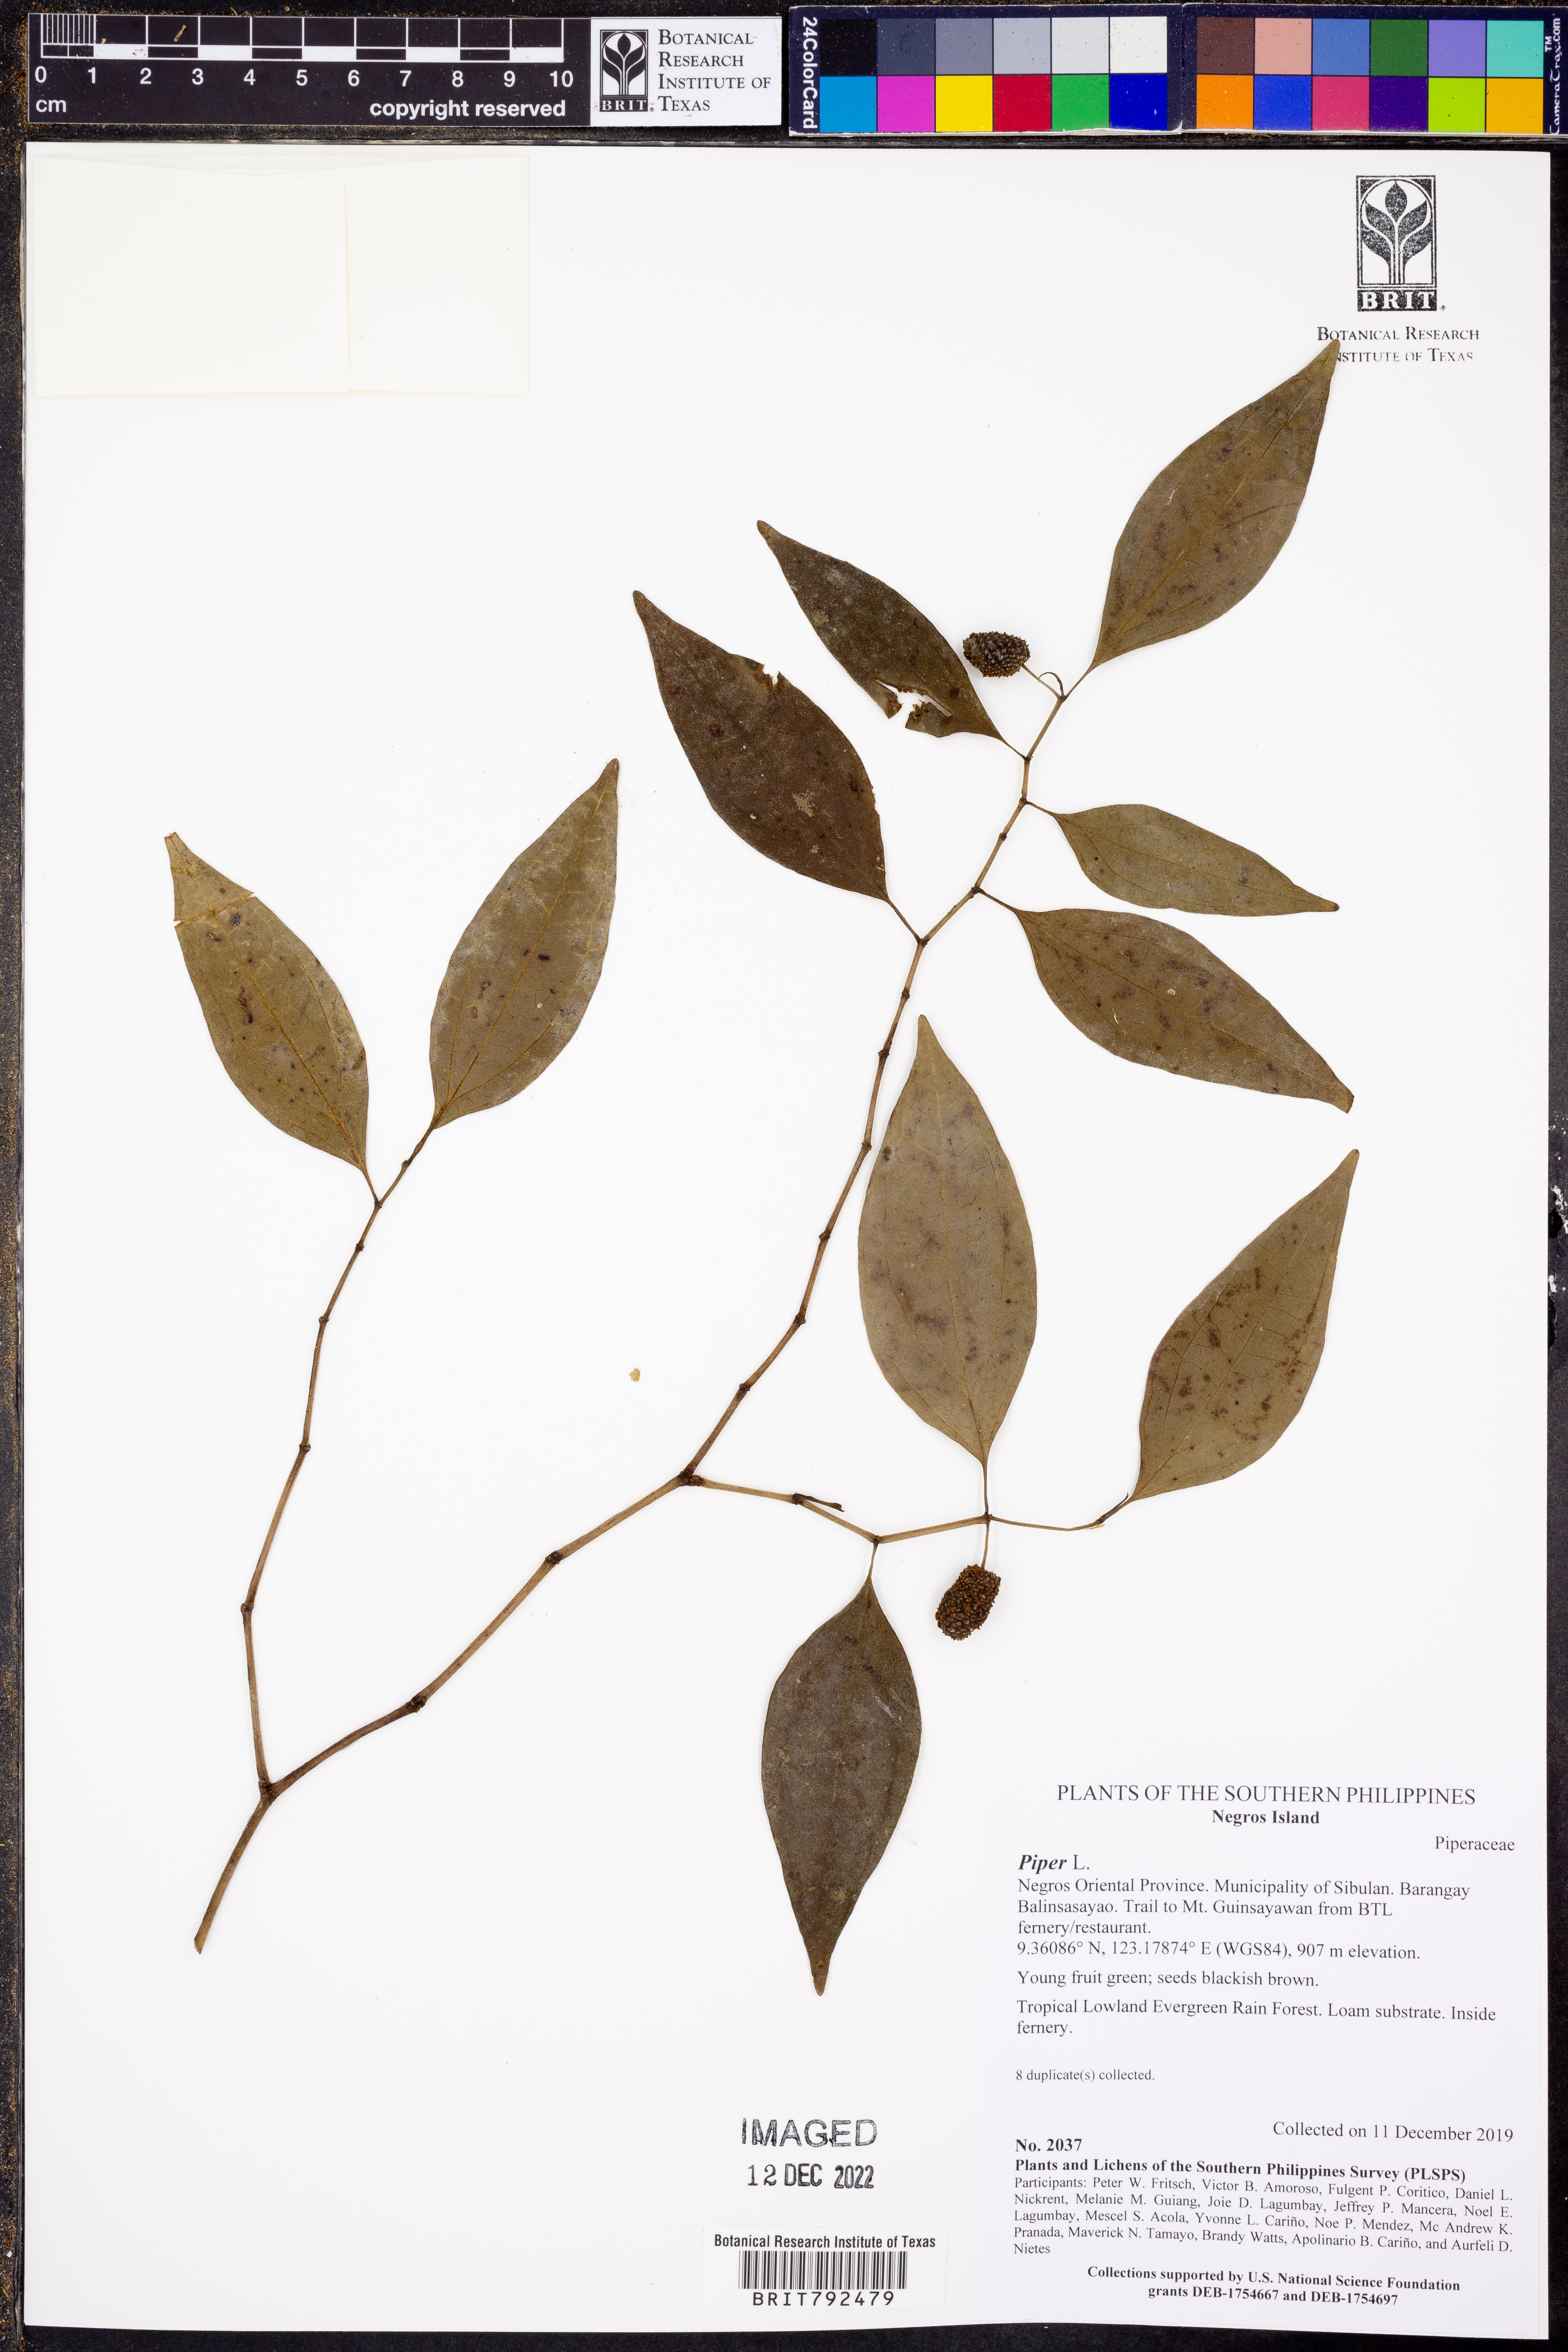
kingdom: Plantae
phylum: Tracheophyta
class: Magnoliopsida
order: Piperales
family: Piperaceae
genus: Piper
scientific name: Piper
